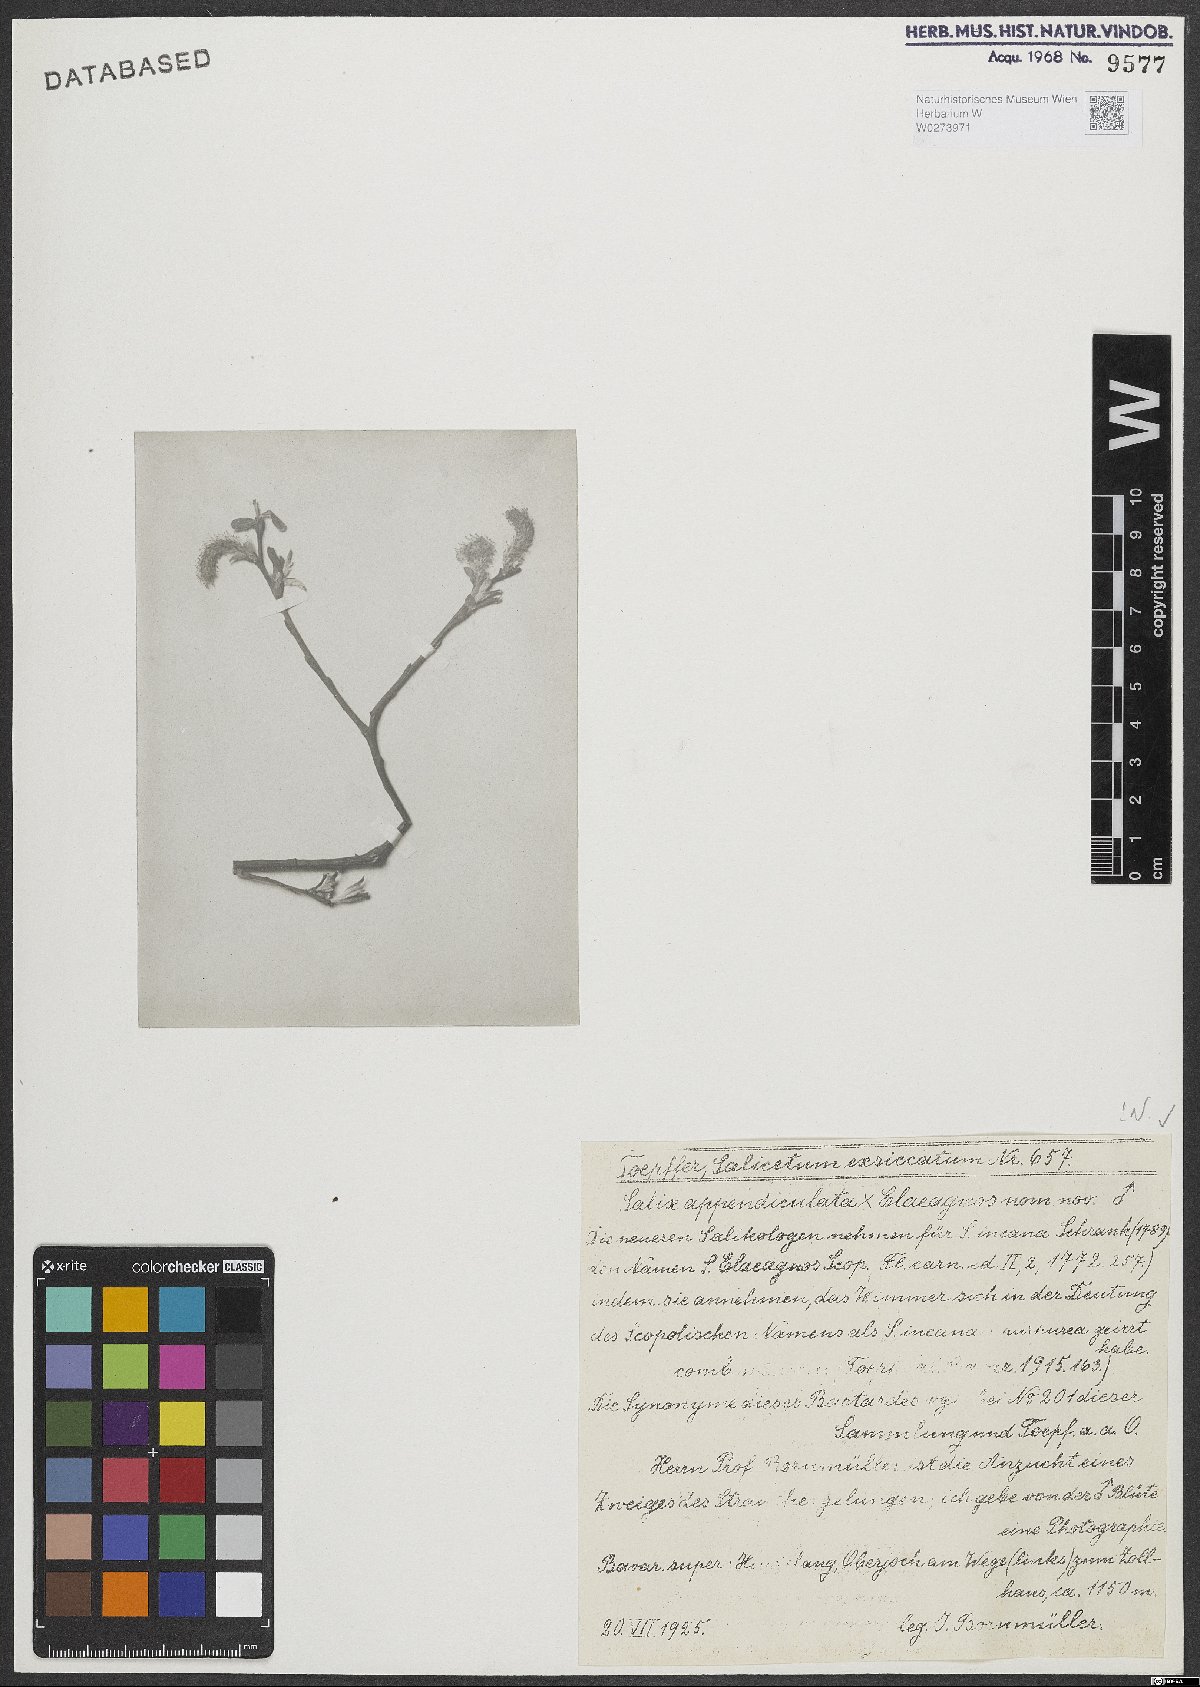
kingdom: Plantae
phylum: Tracheophyta
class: Magnoliopsida
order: Malpighiales
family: Salicaceae
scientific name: Salicaceae
